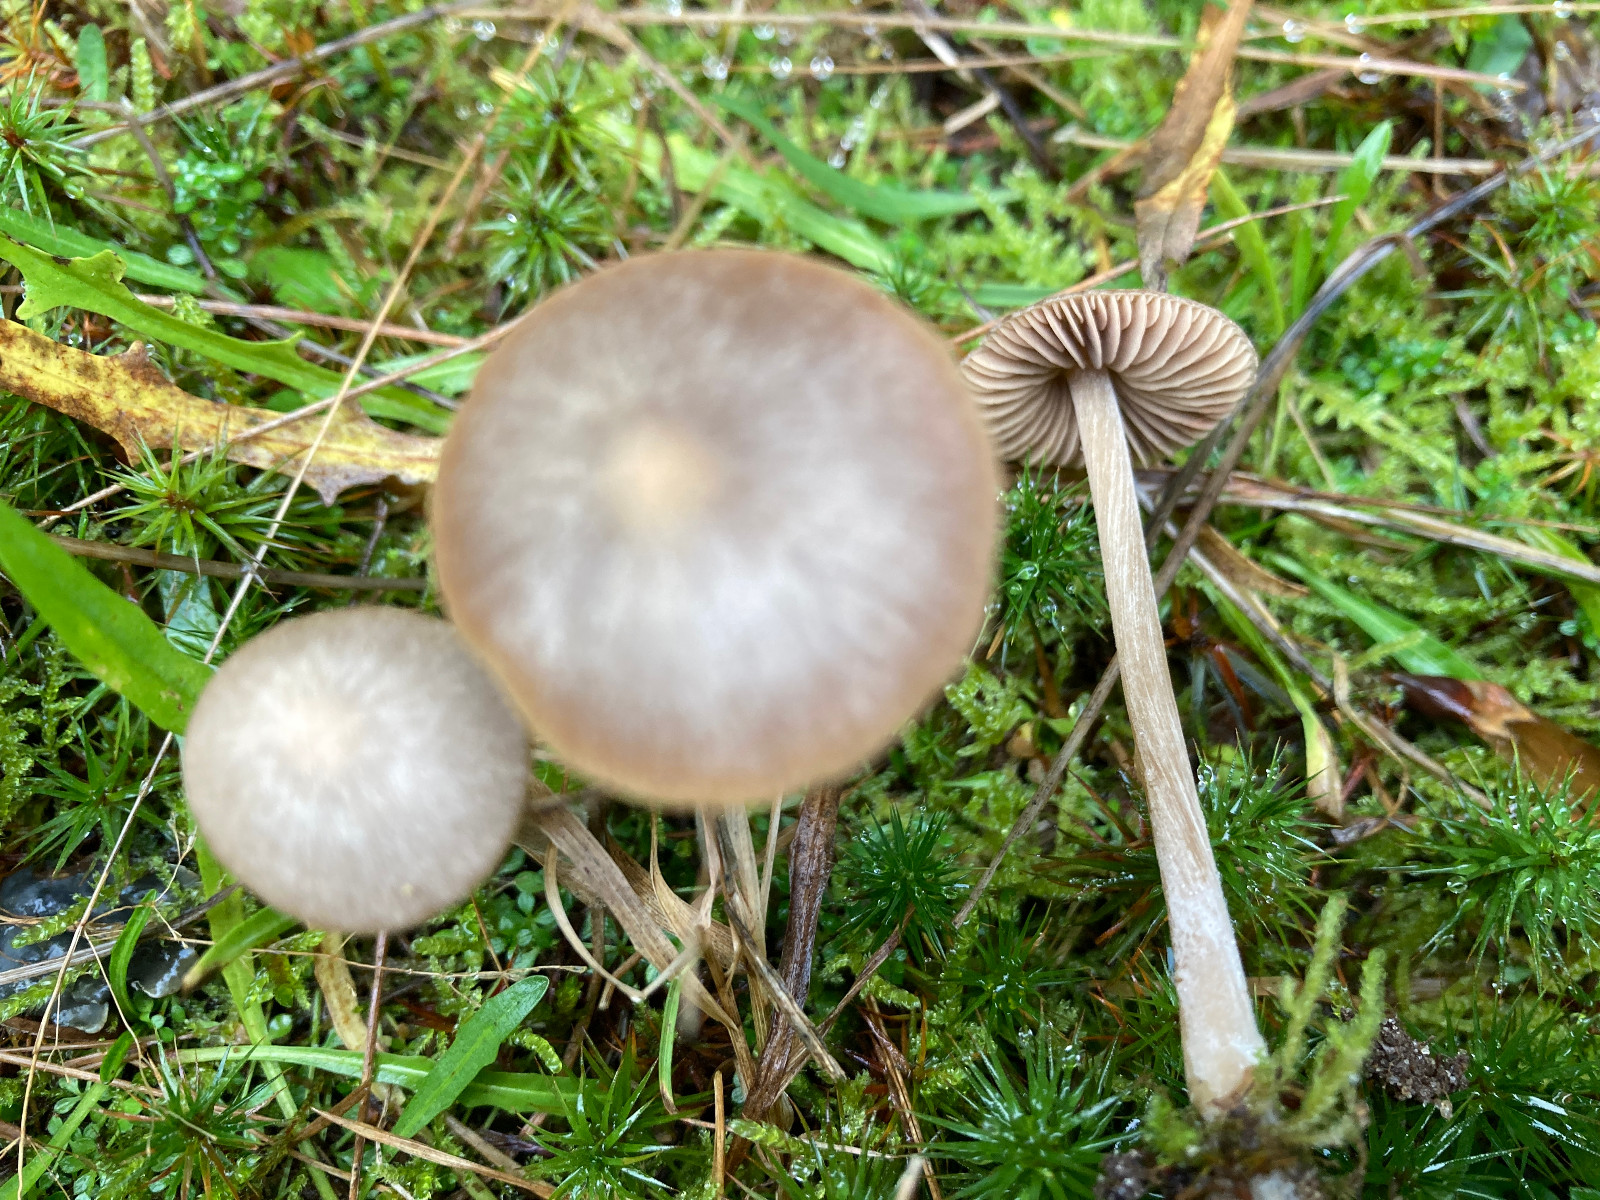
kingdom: Fungi
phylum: Basidiomycota
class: Agaricomycetes
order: Agaricales
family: Entolomataceae
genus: Entoloma
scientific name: Entoloma
